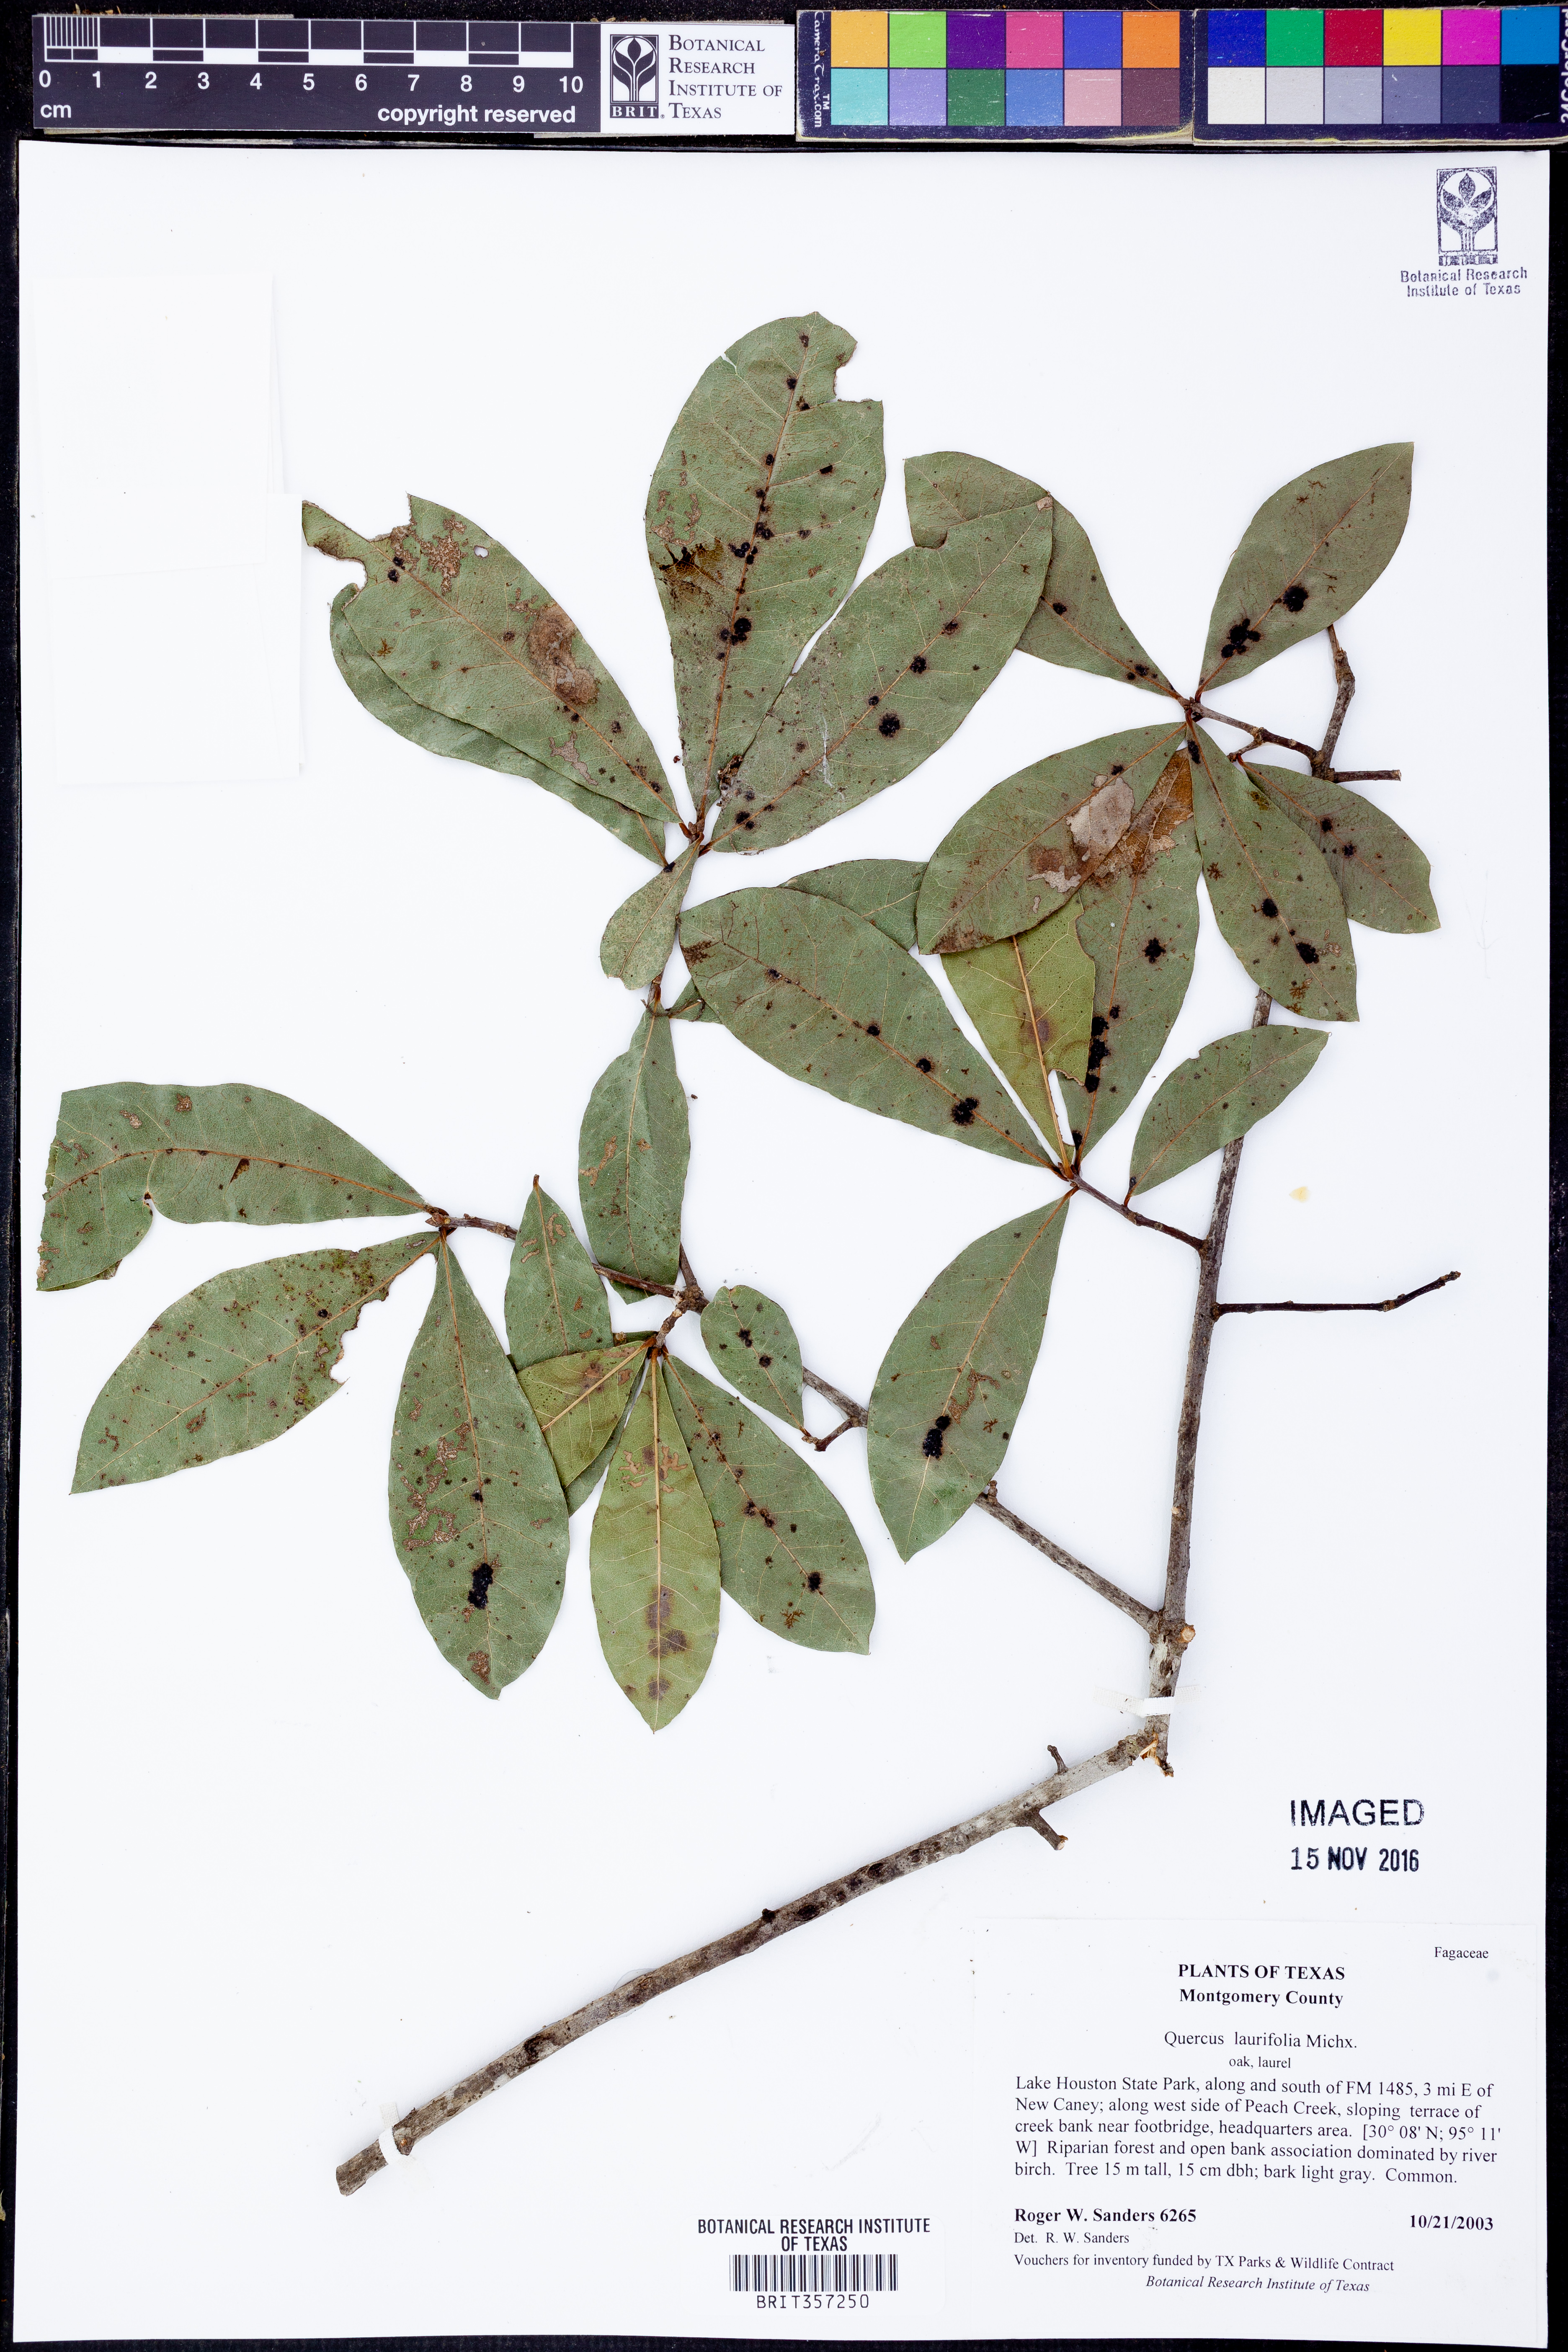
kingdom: Plantae
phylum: Tracheophyta
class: Magnoliopsida
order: Fagales
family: Fagaceae
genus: Quercus
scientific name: Quercus laurifolia
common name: Swamp laurel oak
